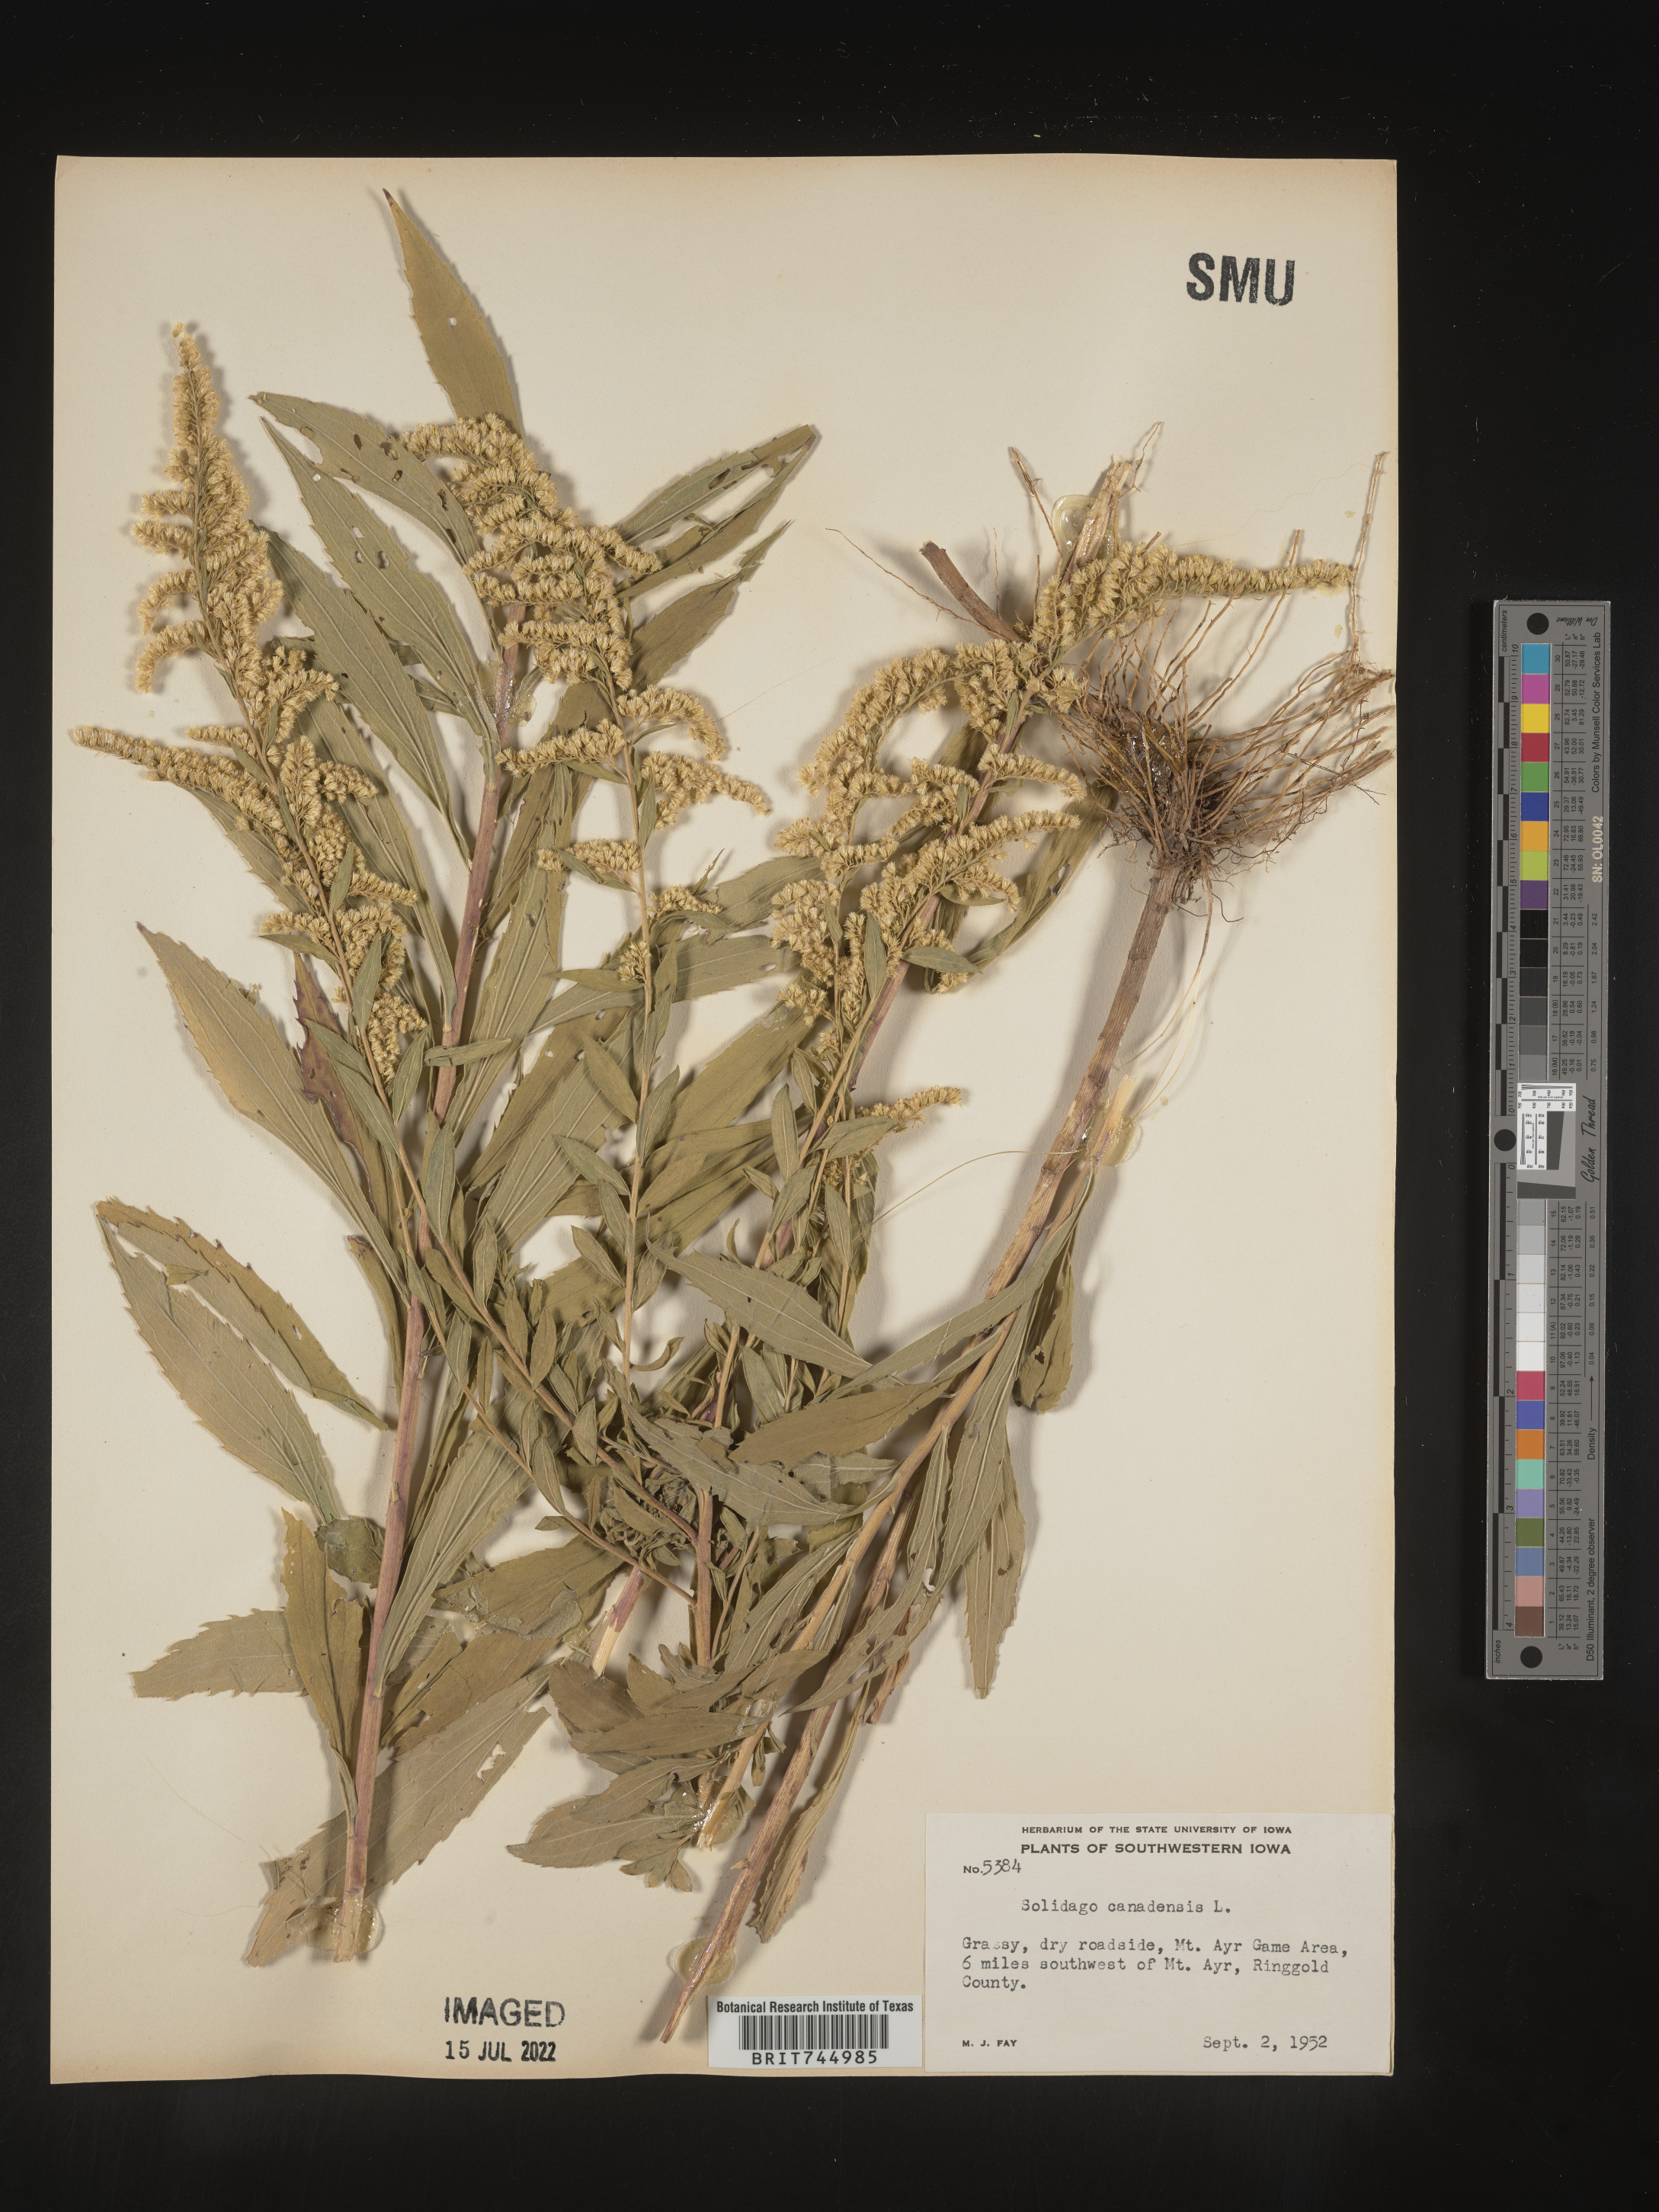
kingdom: Plantae
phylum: Tracheophyta
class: Magnoliopsida
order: Asterales
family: Asteraceae
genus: Solidago
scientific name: Solidago canadensis
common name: Canada goldenrod
